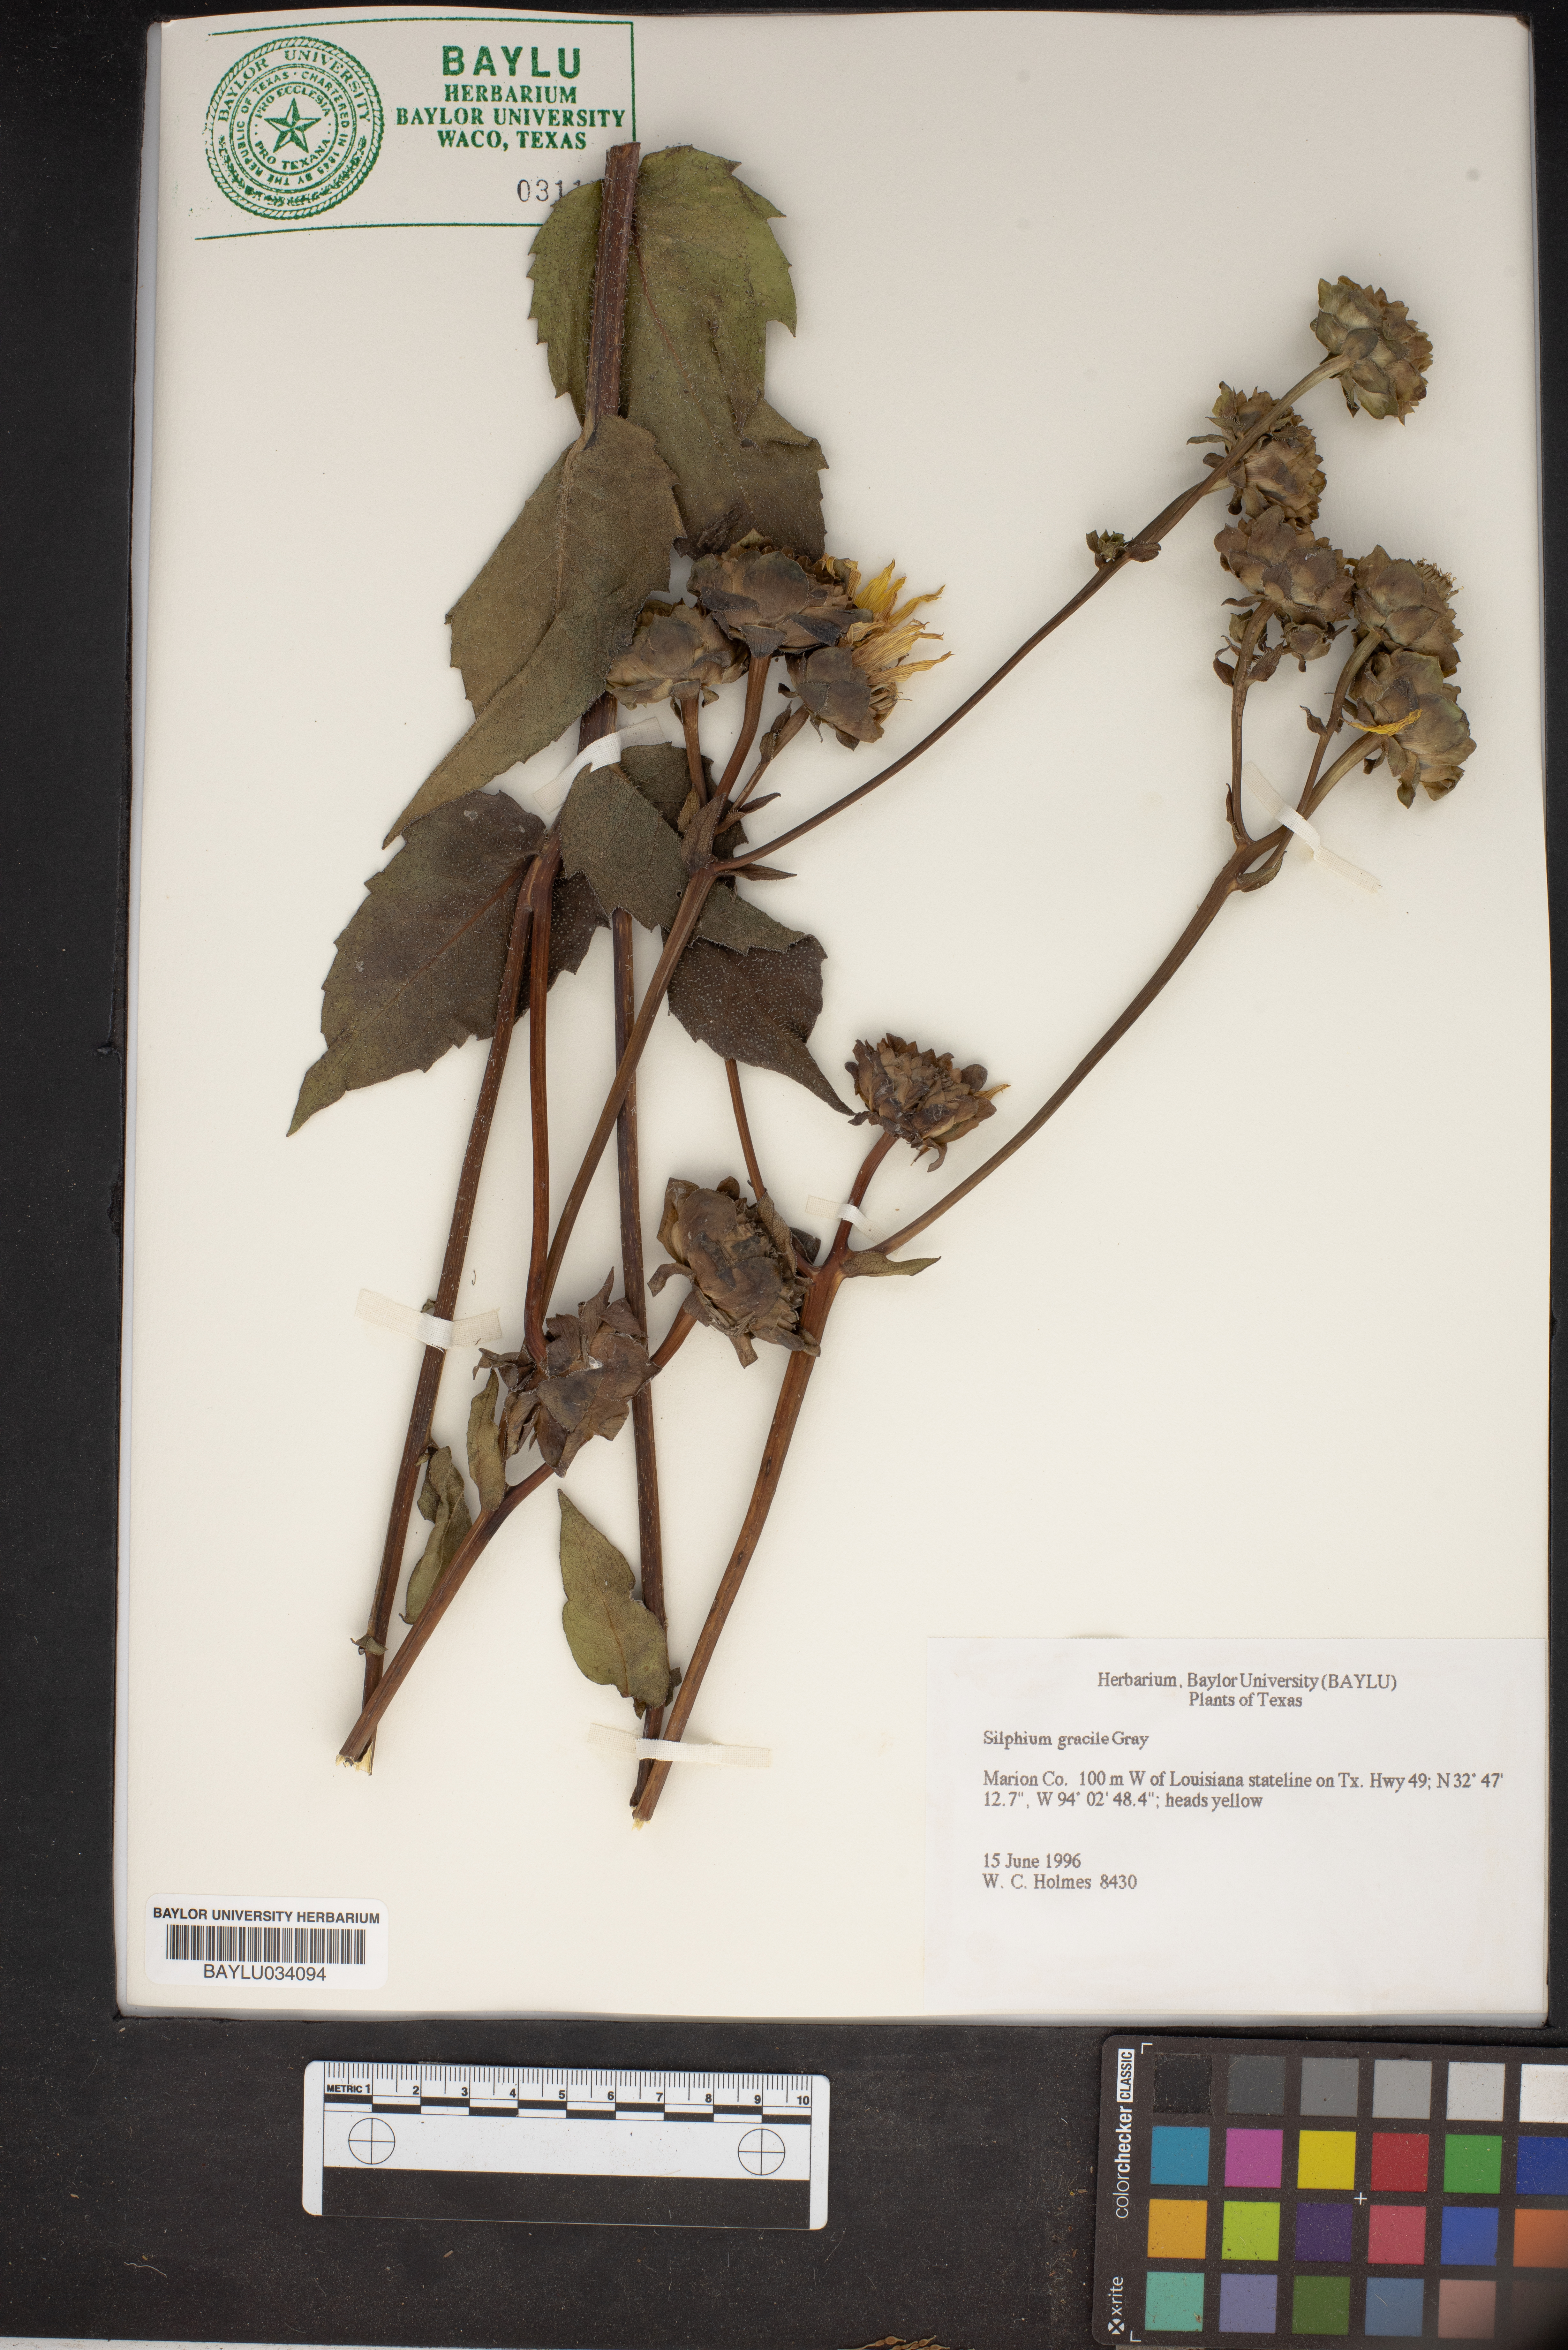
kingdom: Plantae
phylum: Tracheophyta
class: Magnoliopsida
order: Asterales
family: Asteraceae
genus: Silphium
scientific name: Silphium radula
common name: Roughleaf rosinweed
